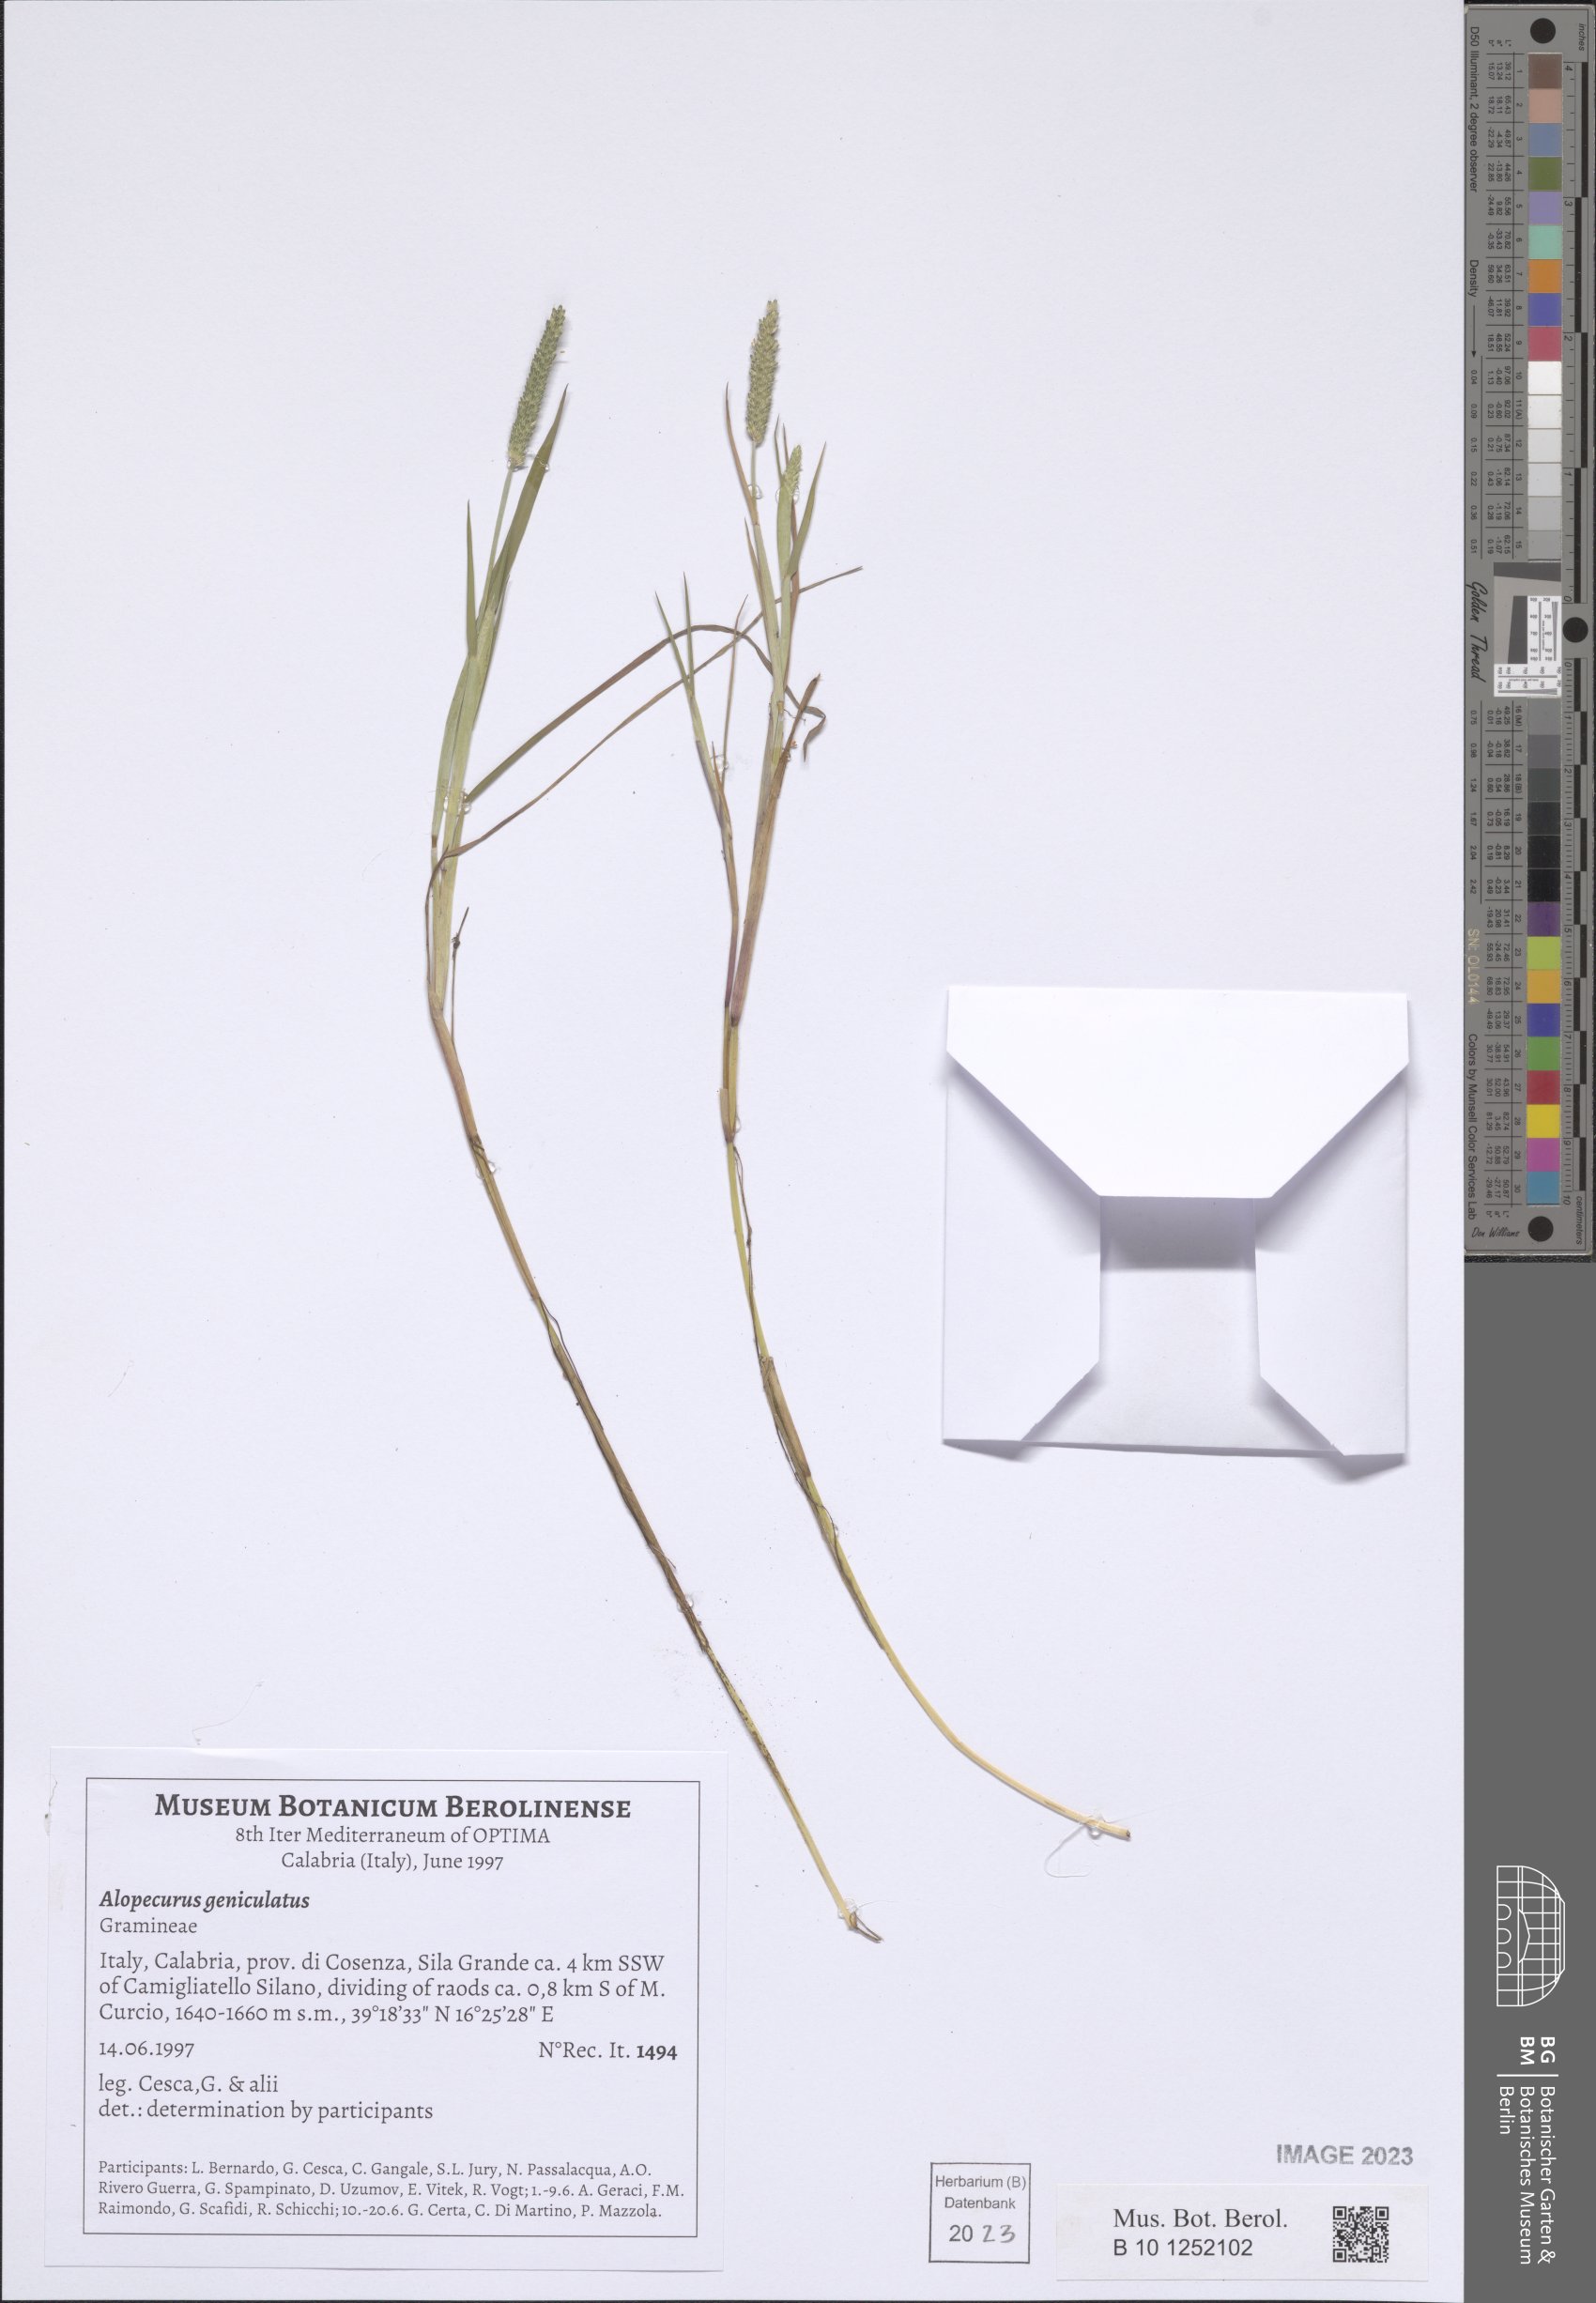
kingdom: Plantae
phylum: Tracheophyta
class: Liliopsida
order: Poales
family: Poaceae
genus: Alopecurus
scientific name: Alopecurus geniculatus
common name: Water foxtail
